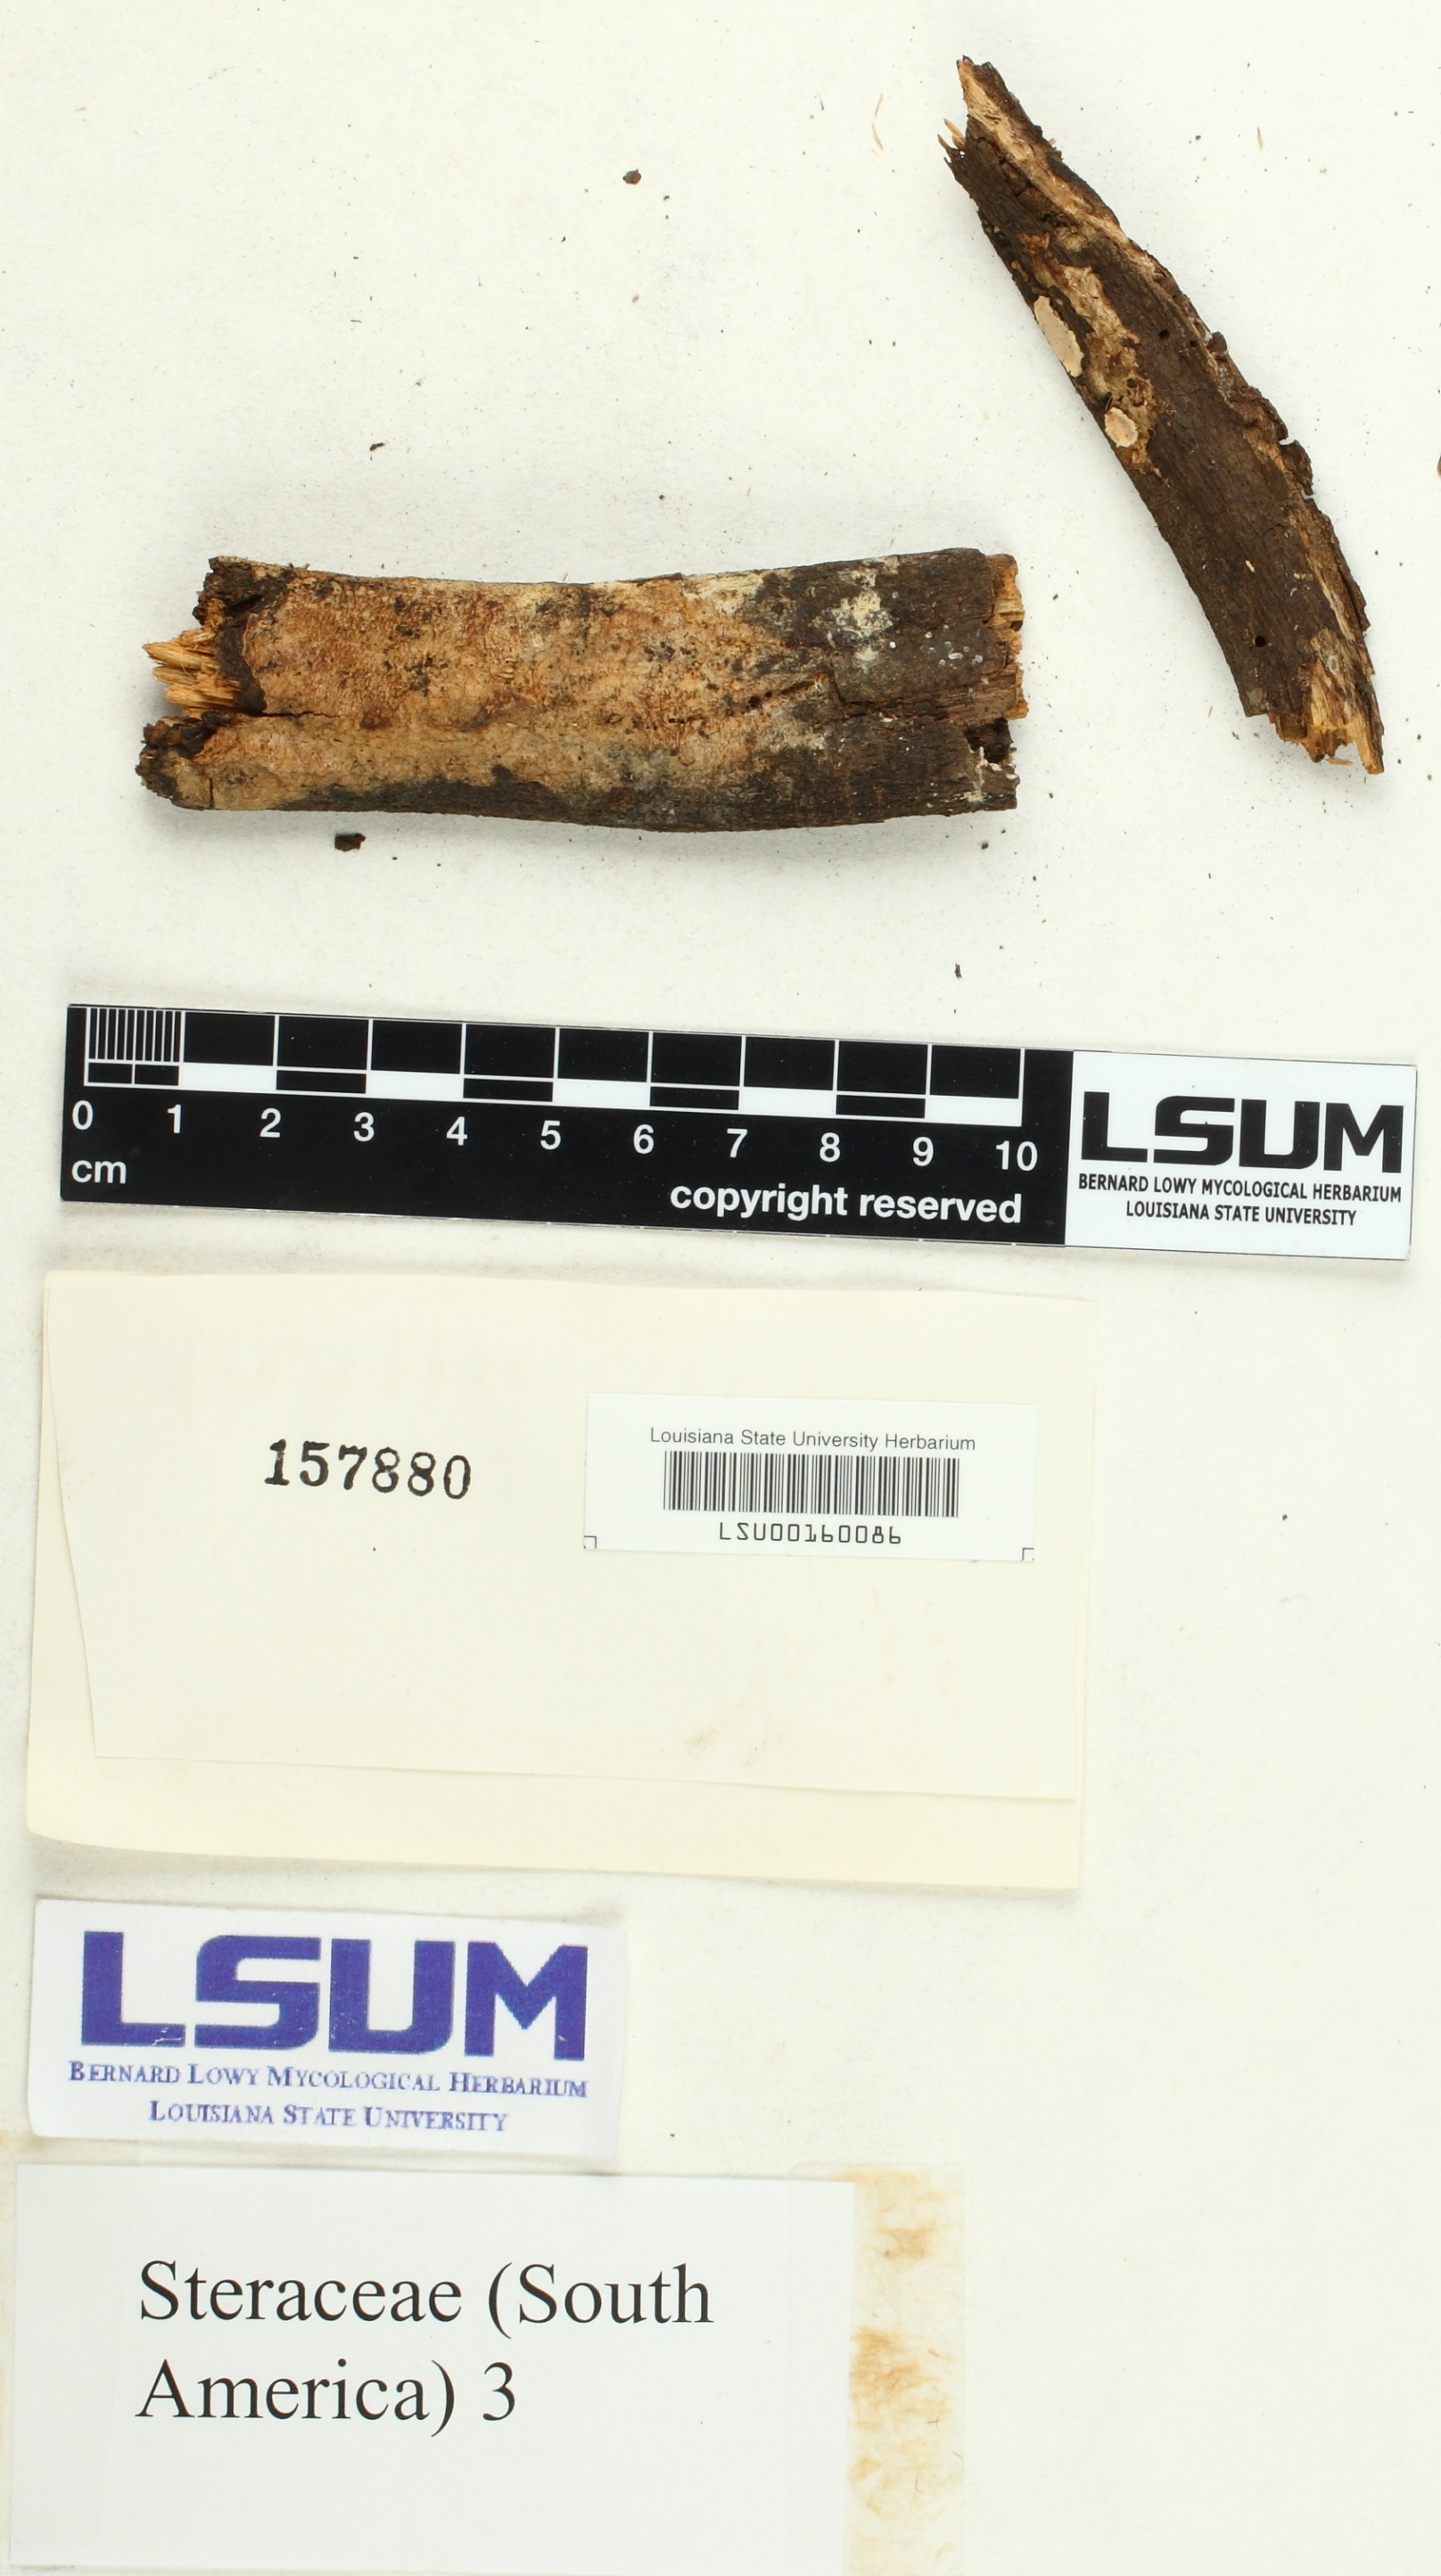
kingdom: Fungi
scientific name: Fungi
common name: Fungi
